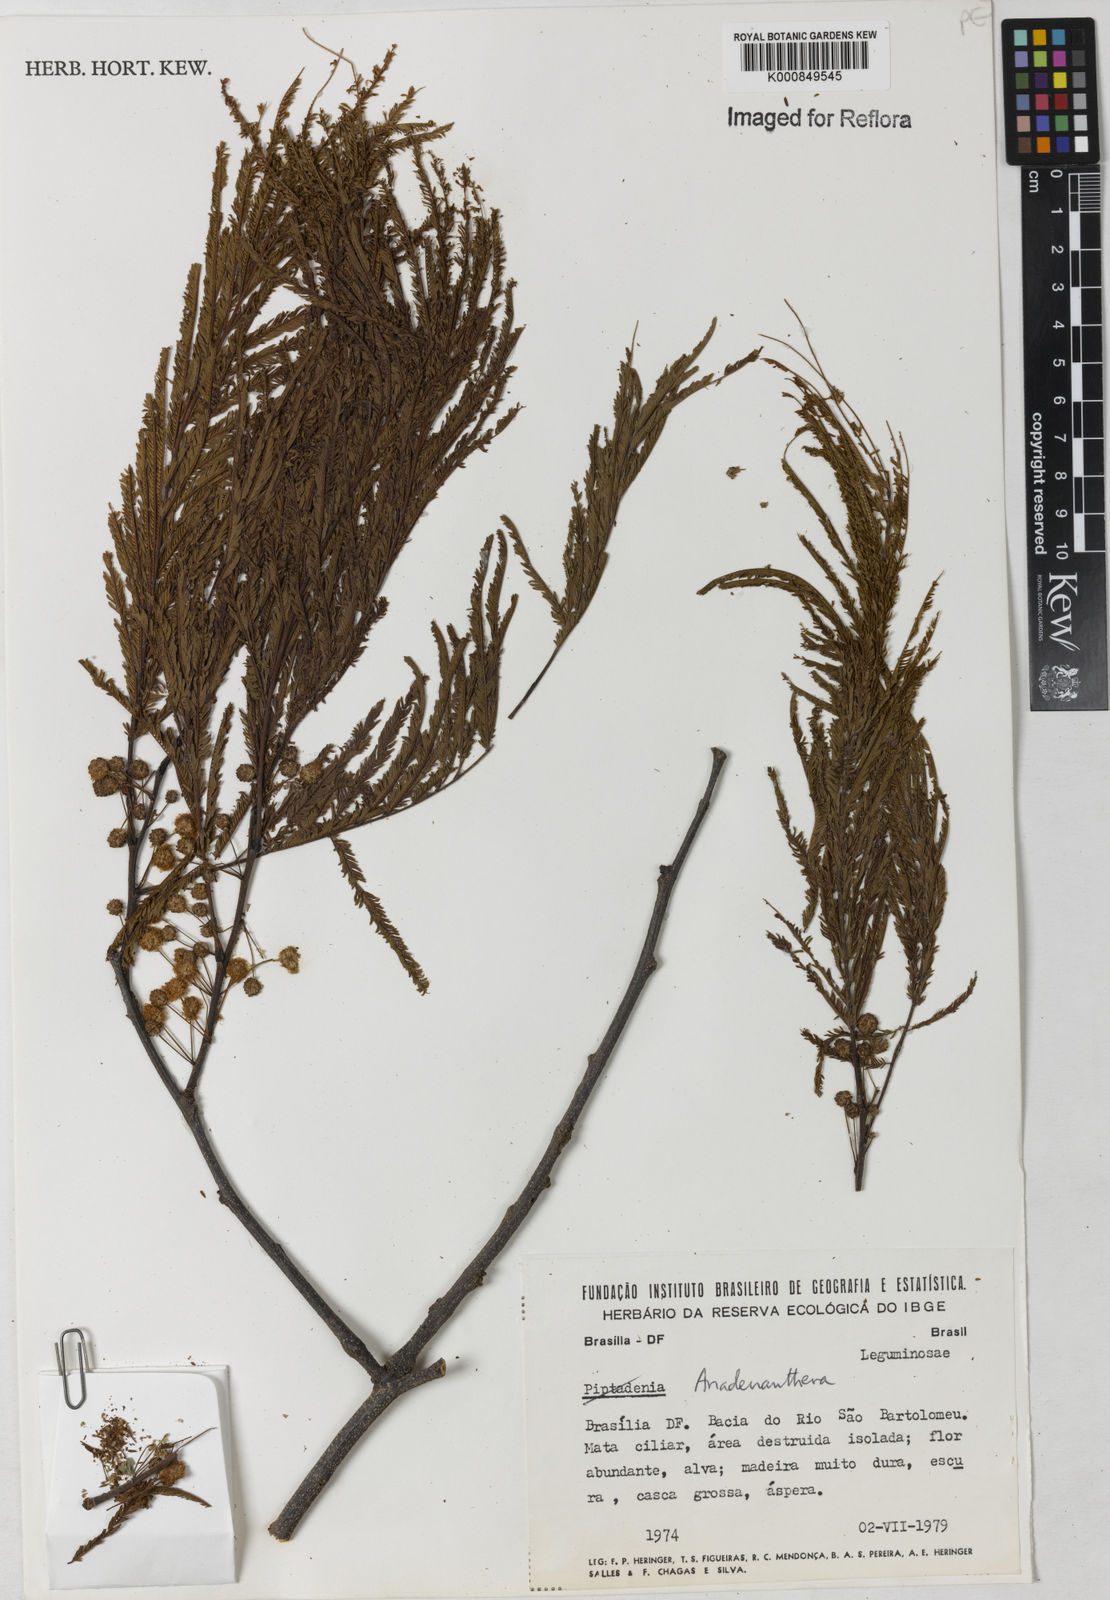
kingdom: Plantae
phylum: Tracheophyta
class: Magnoliopsida
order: Fabales
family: Fabaceae
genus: Anadenanthera
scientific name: Anadenanthera
